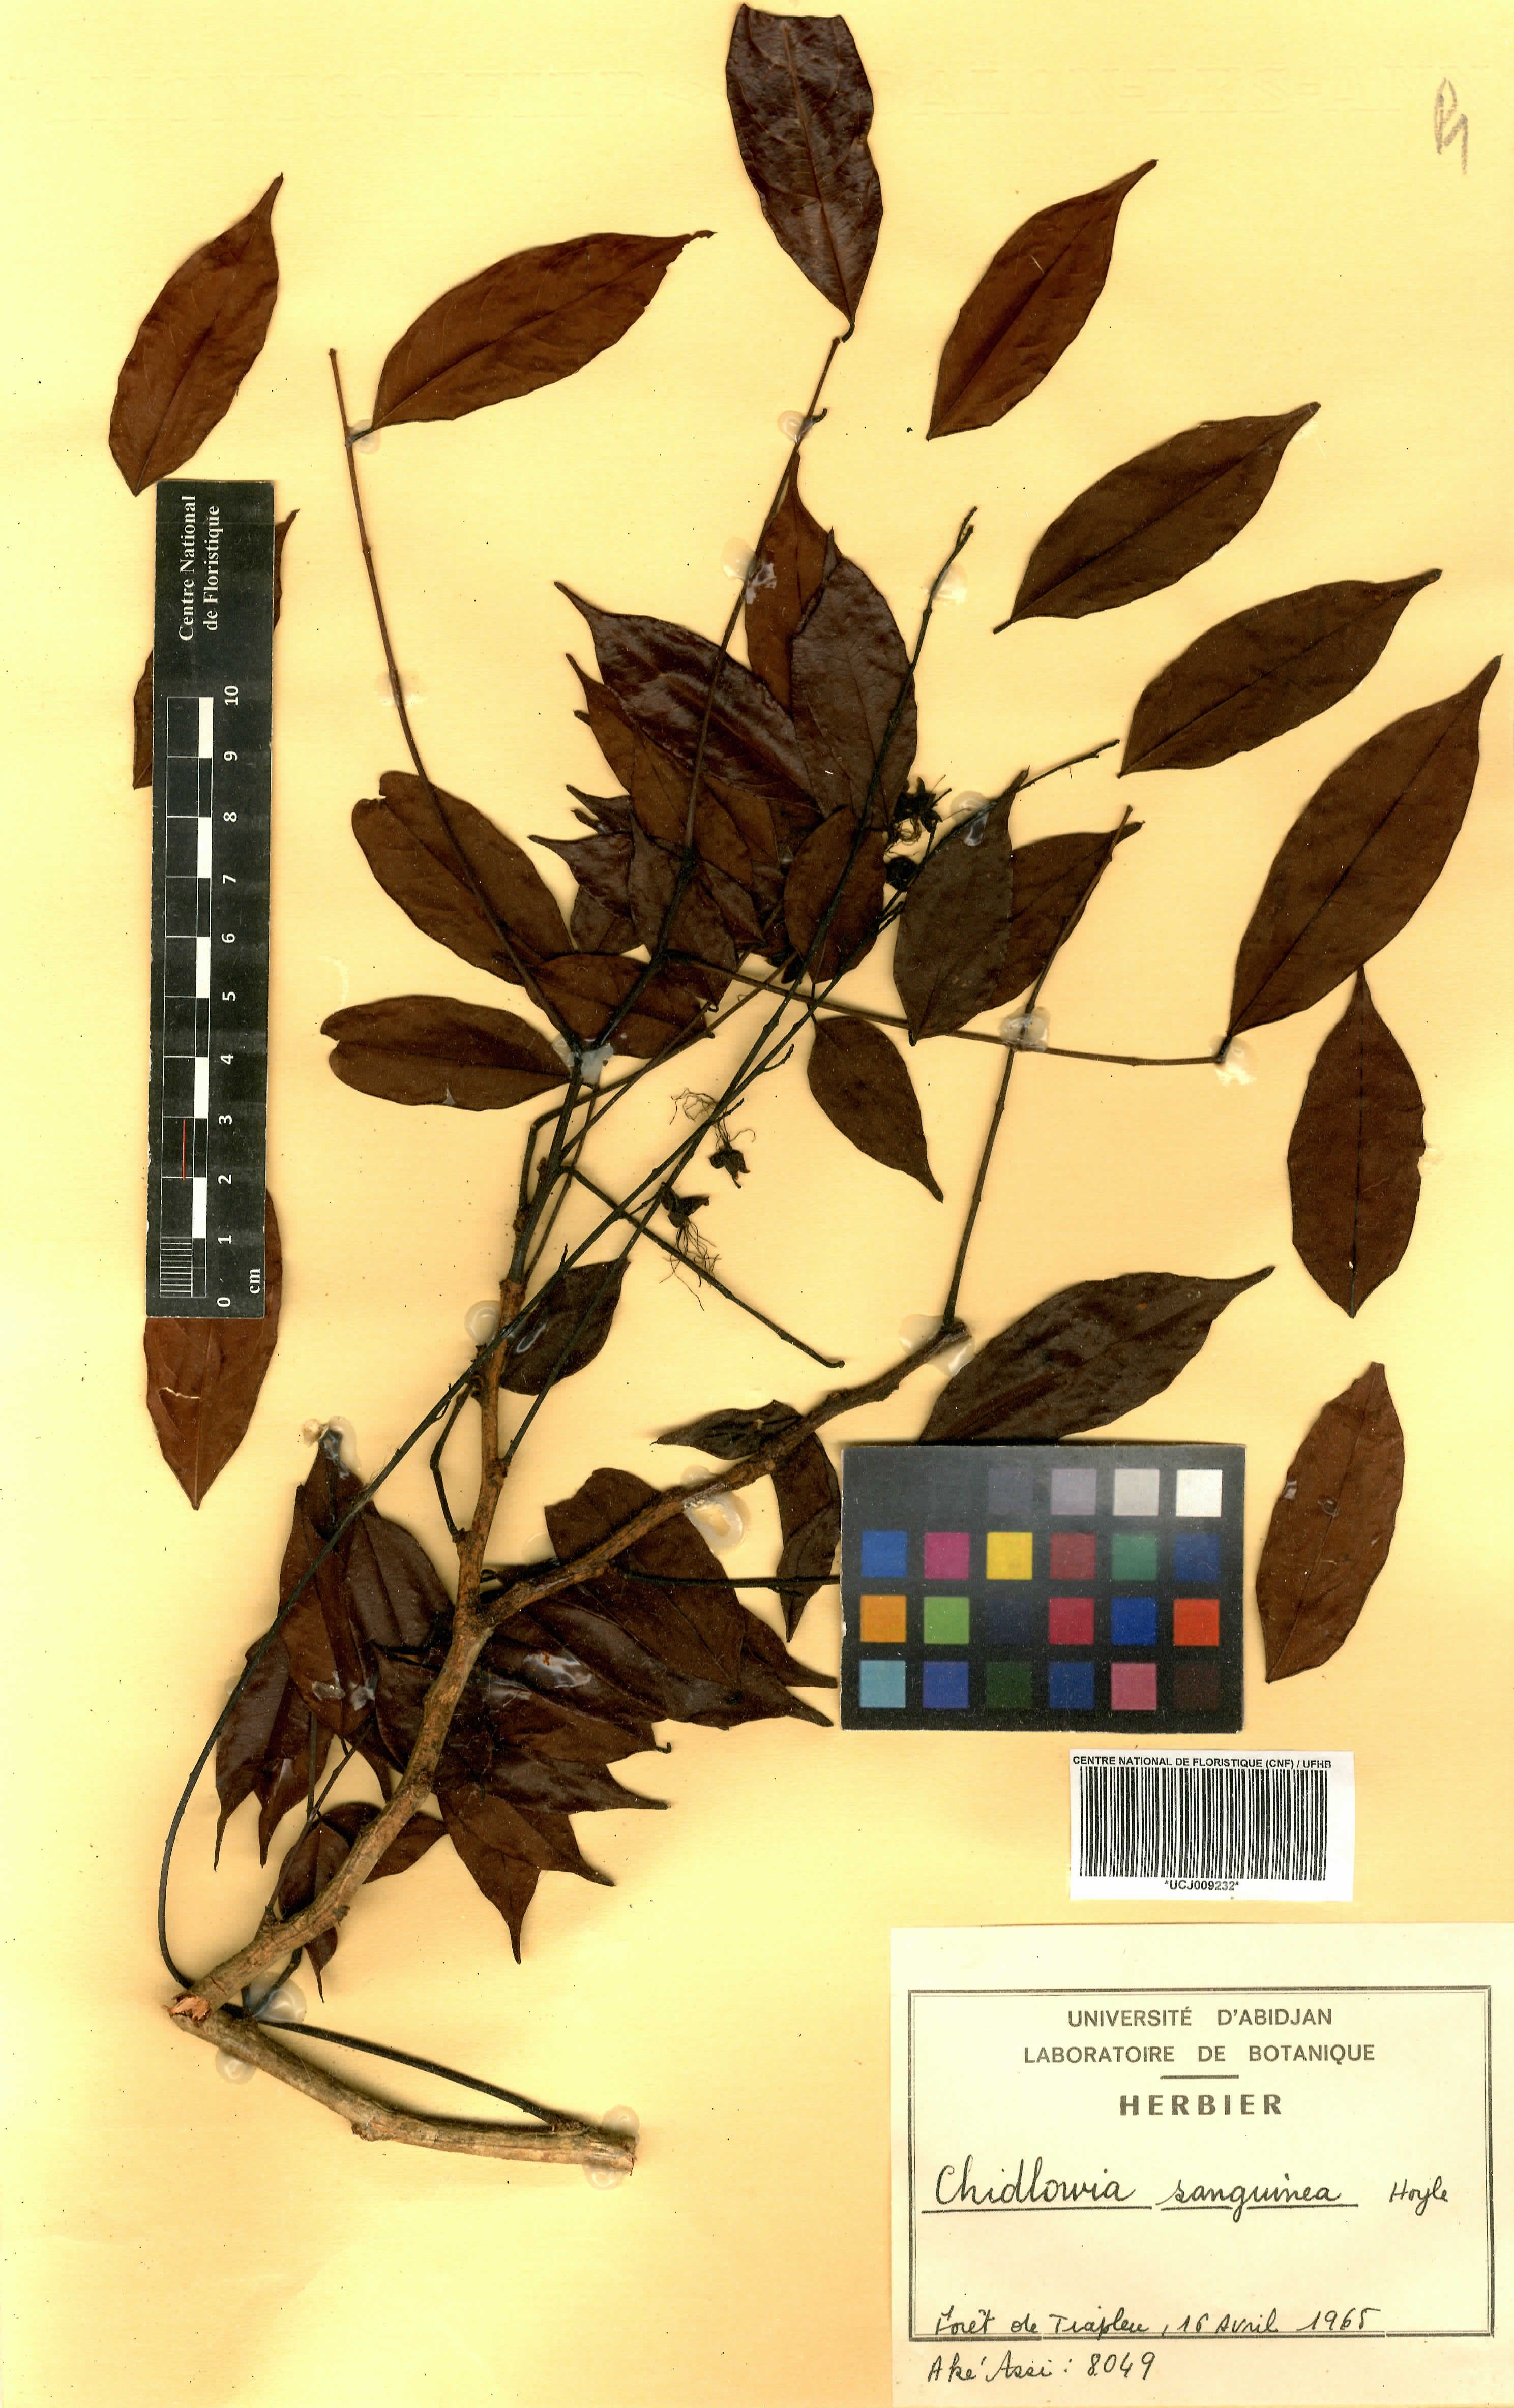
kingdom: Plantae
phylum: Tracheophyta
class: Magnoliopsida
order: Fabales
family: Fabaceae
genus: Chidlowia
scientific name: Chidlowia sanguinea
